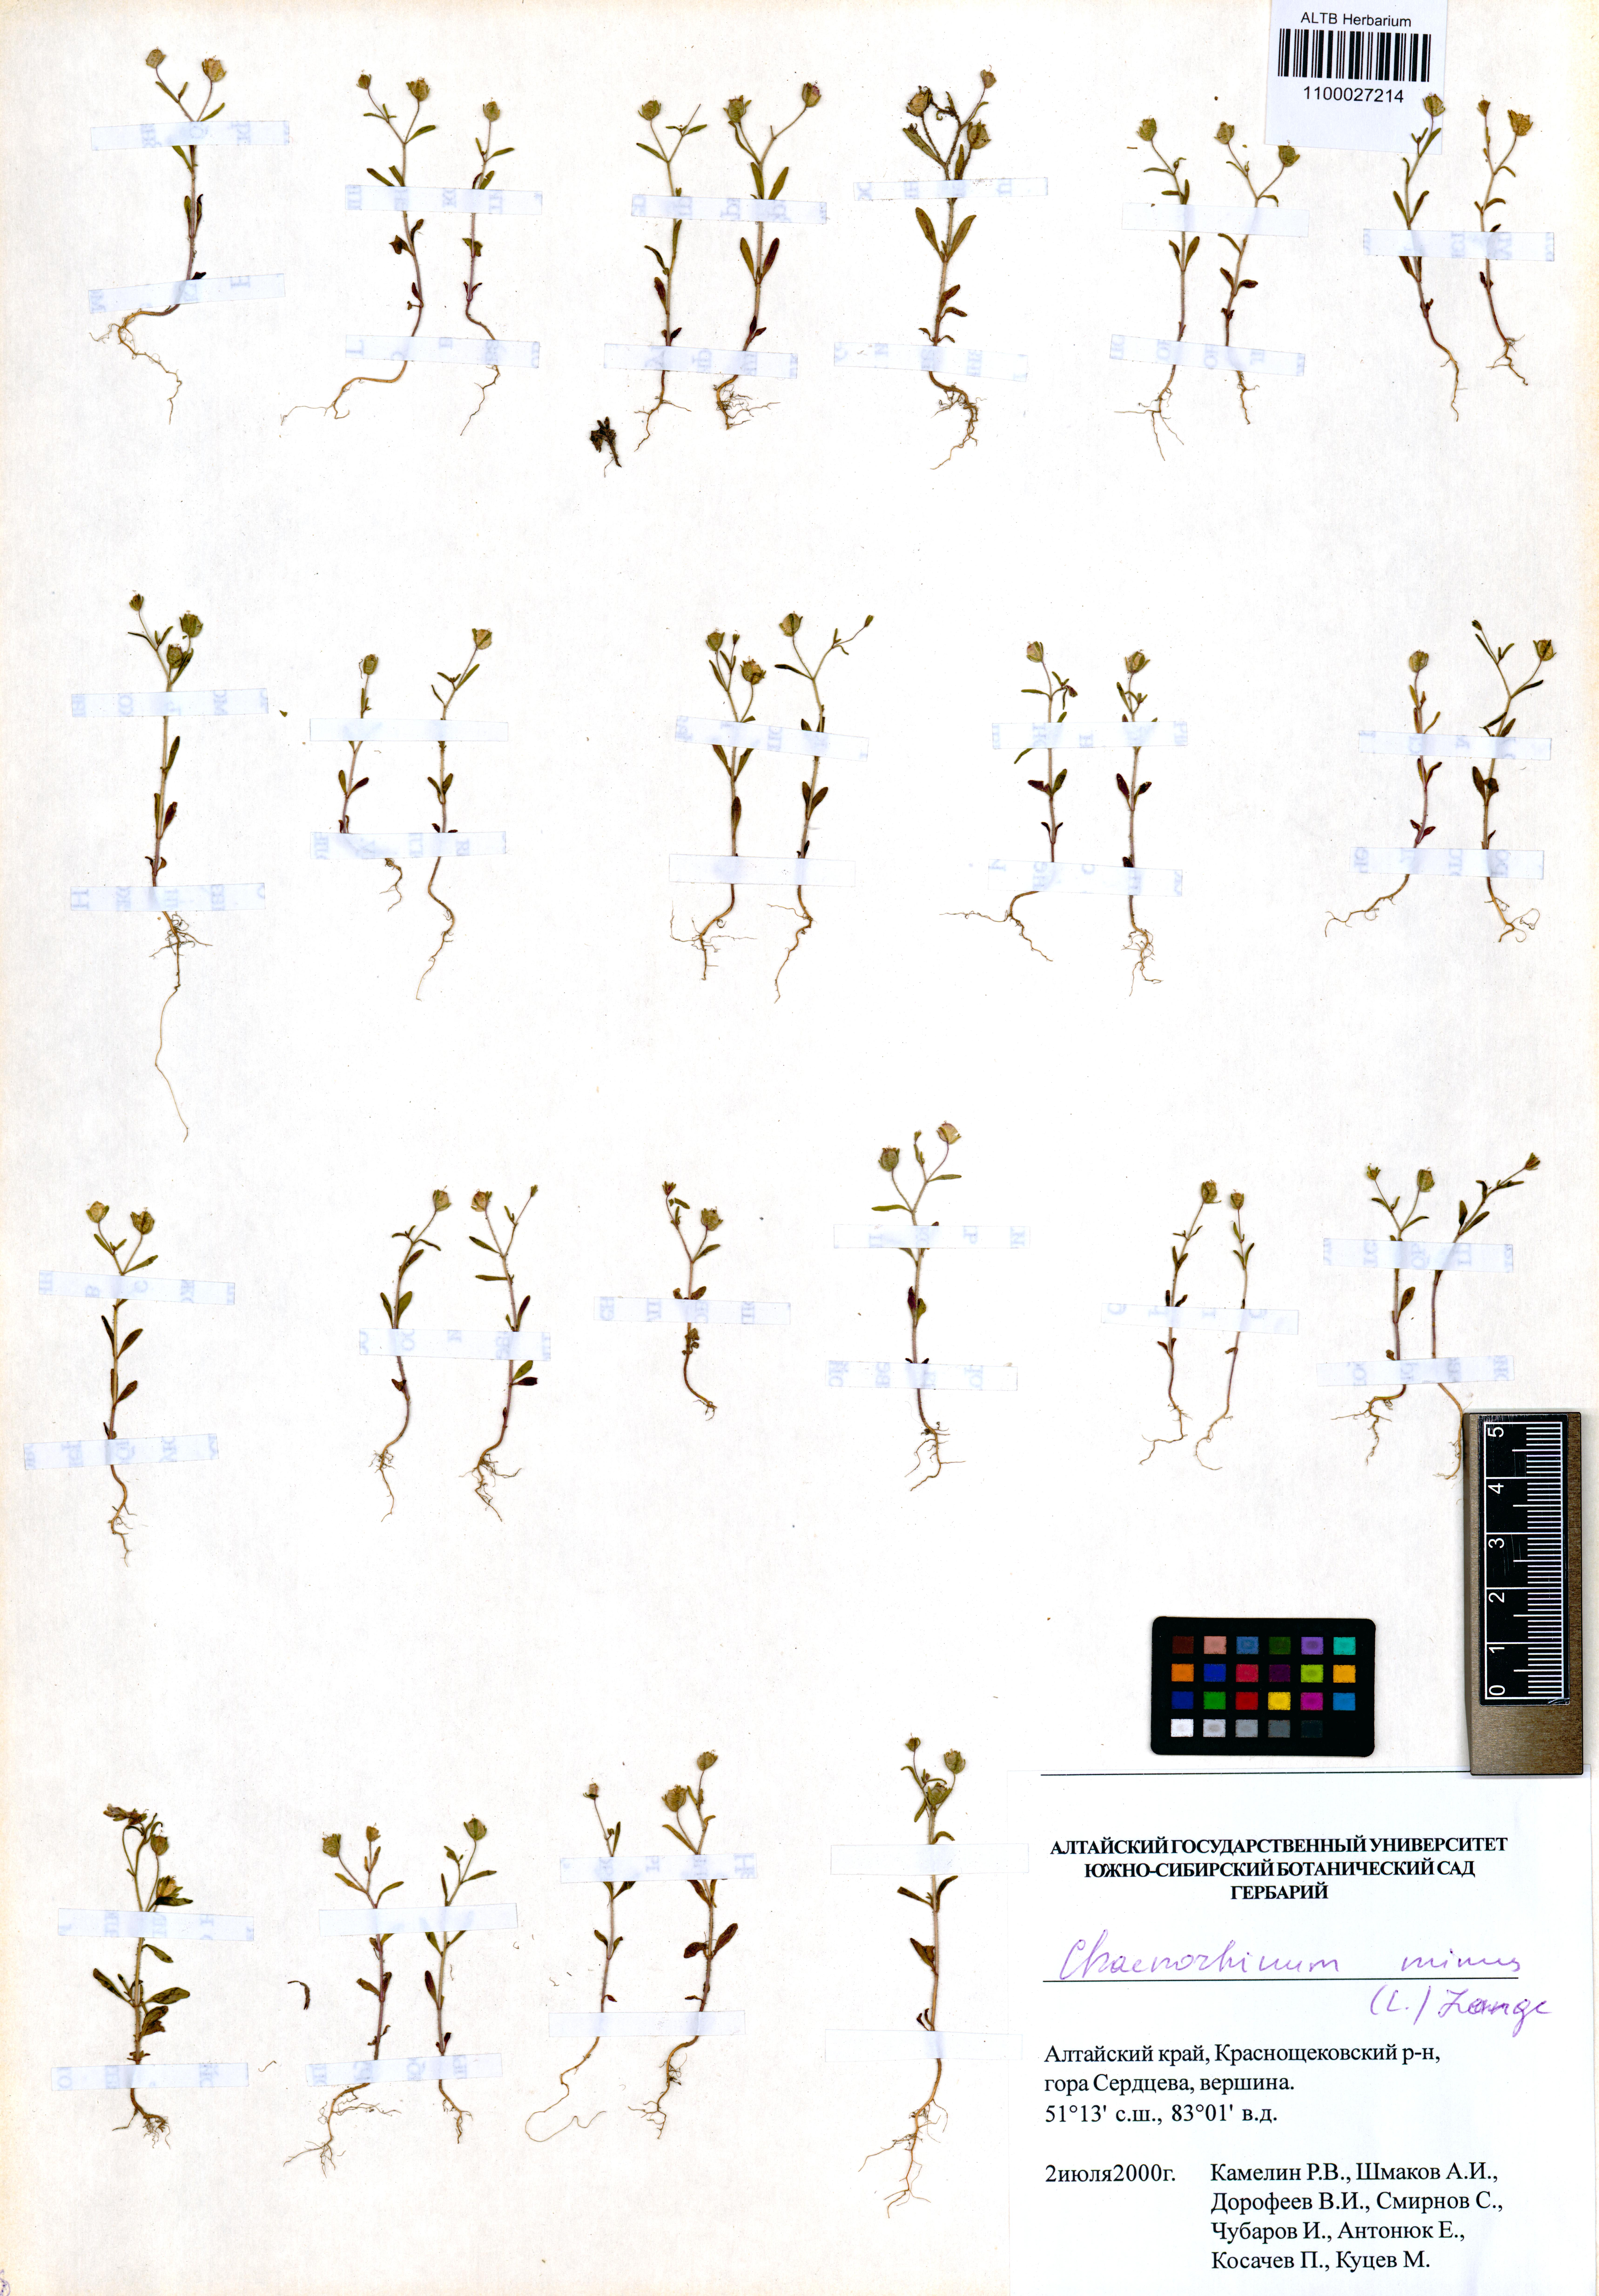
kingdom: Plantae
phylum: Tracheophyta
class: Magnoliopsida
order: Lamiales
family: Plantaginaceae
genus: Chaenorhinum
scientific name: Chaenorhinum minus
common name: Dwarf snapdragon
